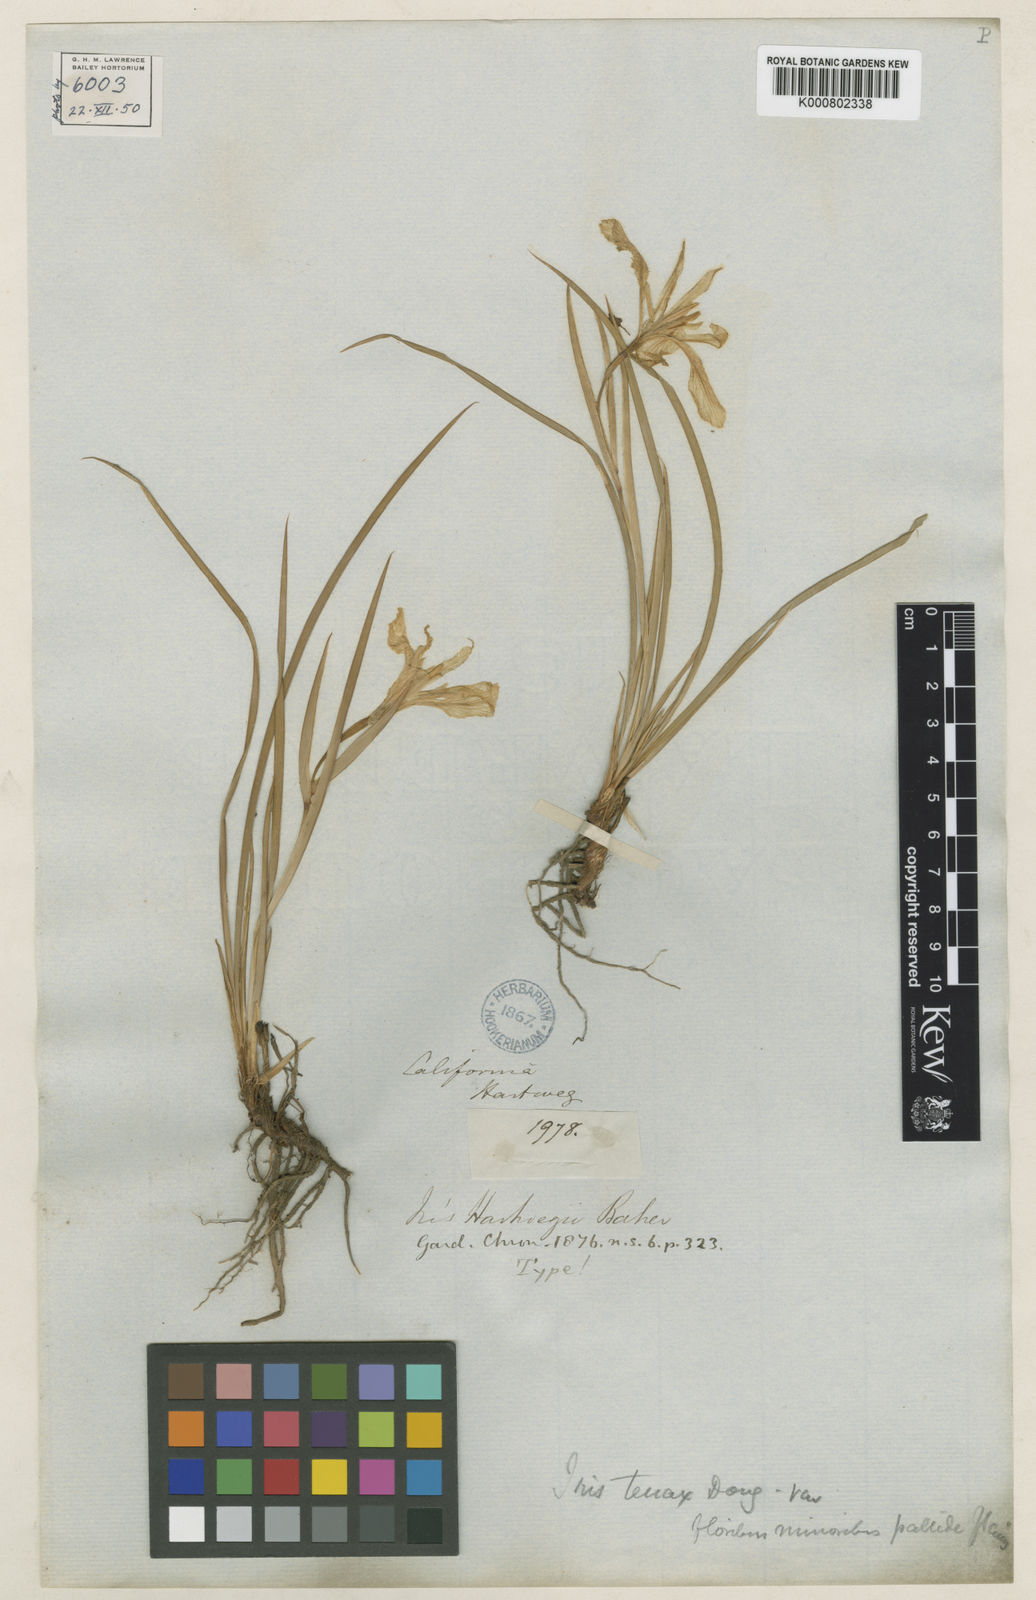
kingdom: Plantae
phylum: Tracheophyta
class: Liliopsida
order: Asparagales
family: Iridaceae
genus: Iris
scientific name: Iris hartwegii
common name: Sierra iris
